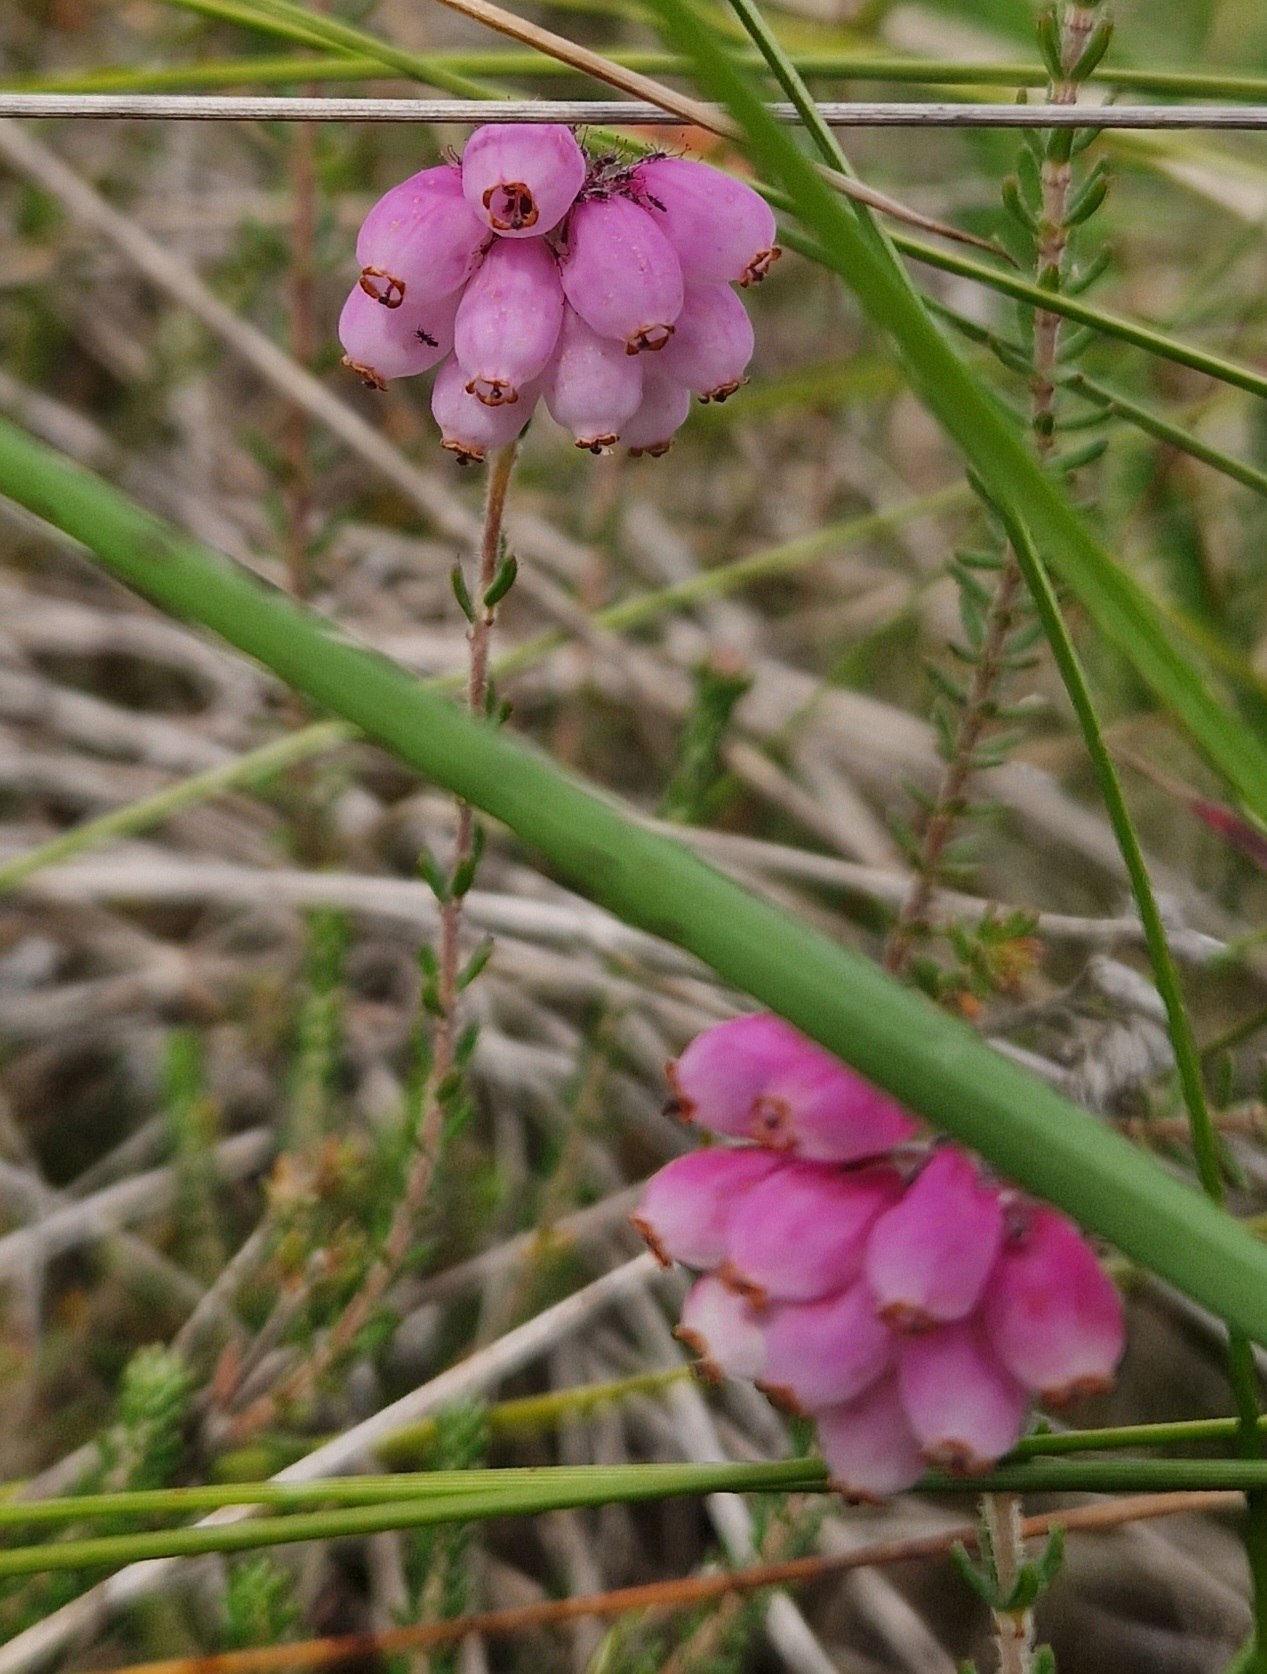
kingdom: Plantae
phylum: Tracheophyta
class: Magnoliopsida
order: Ericales
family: Ericaceae
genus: Erica
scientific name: Erica tetralix
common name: Klokkelyng
